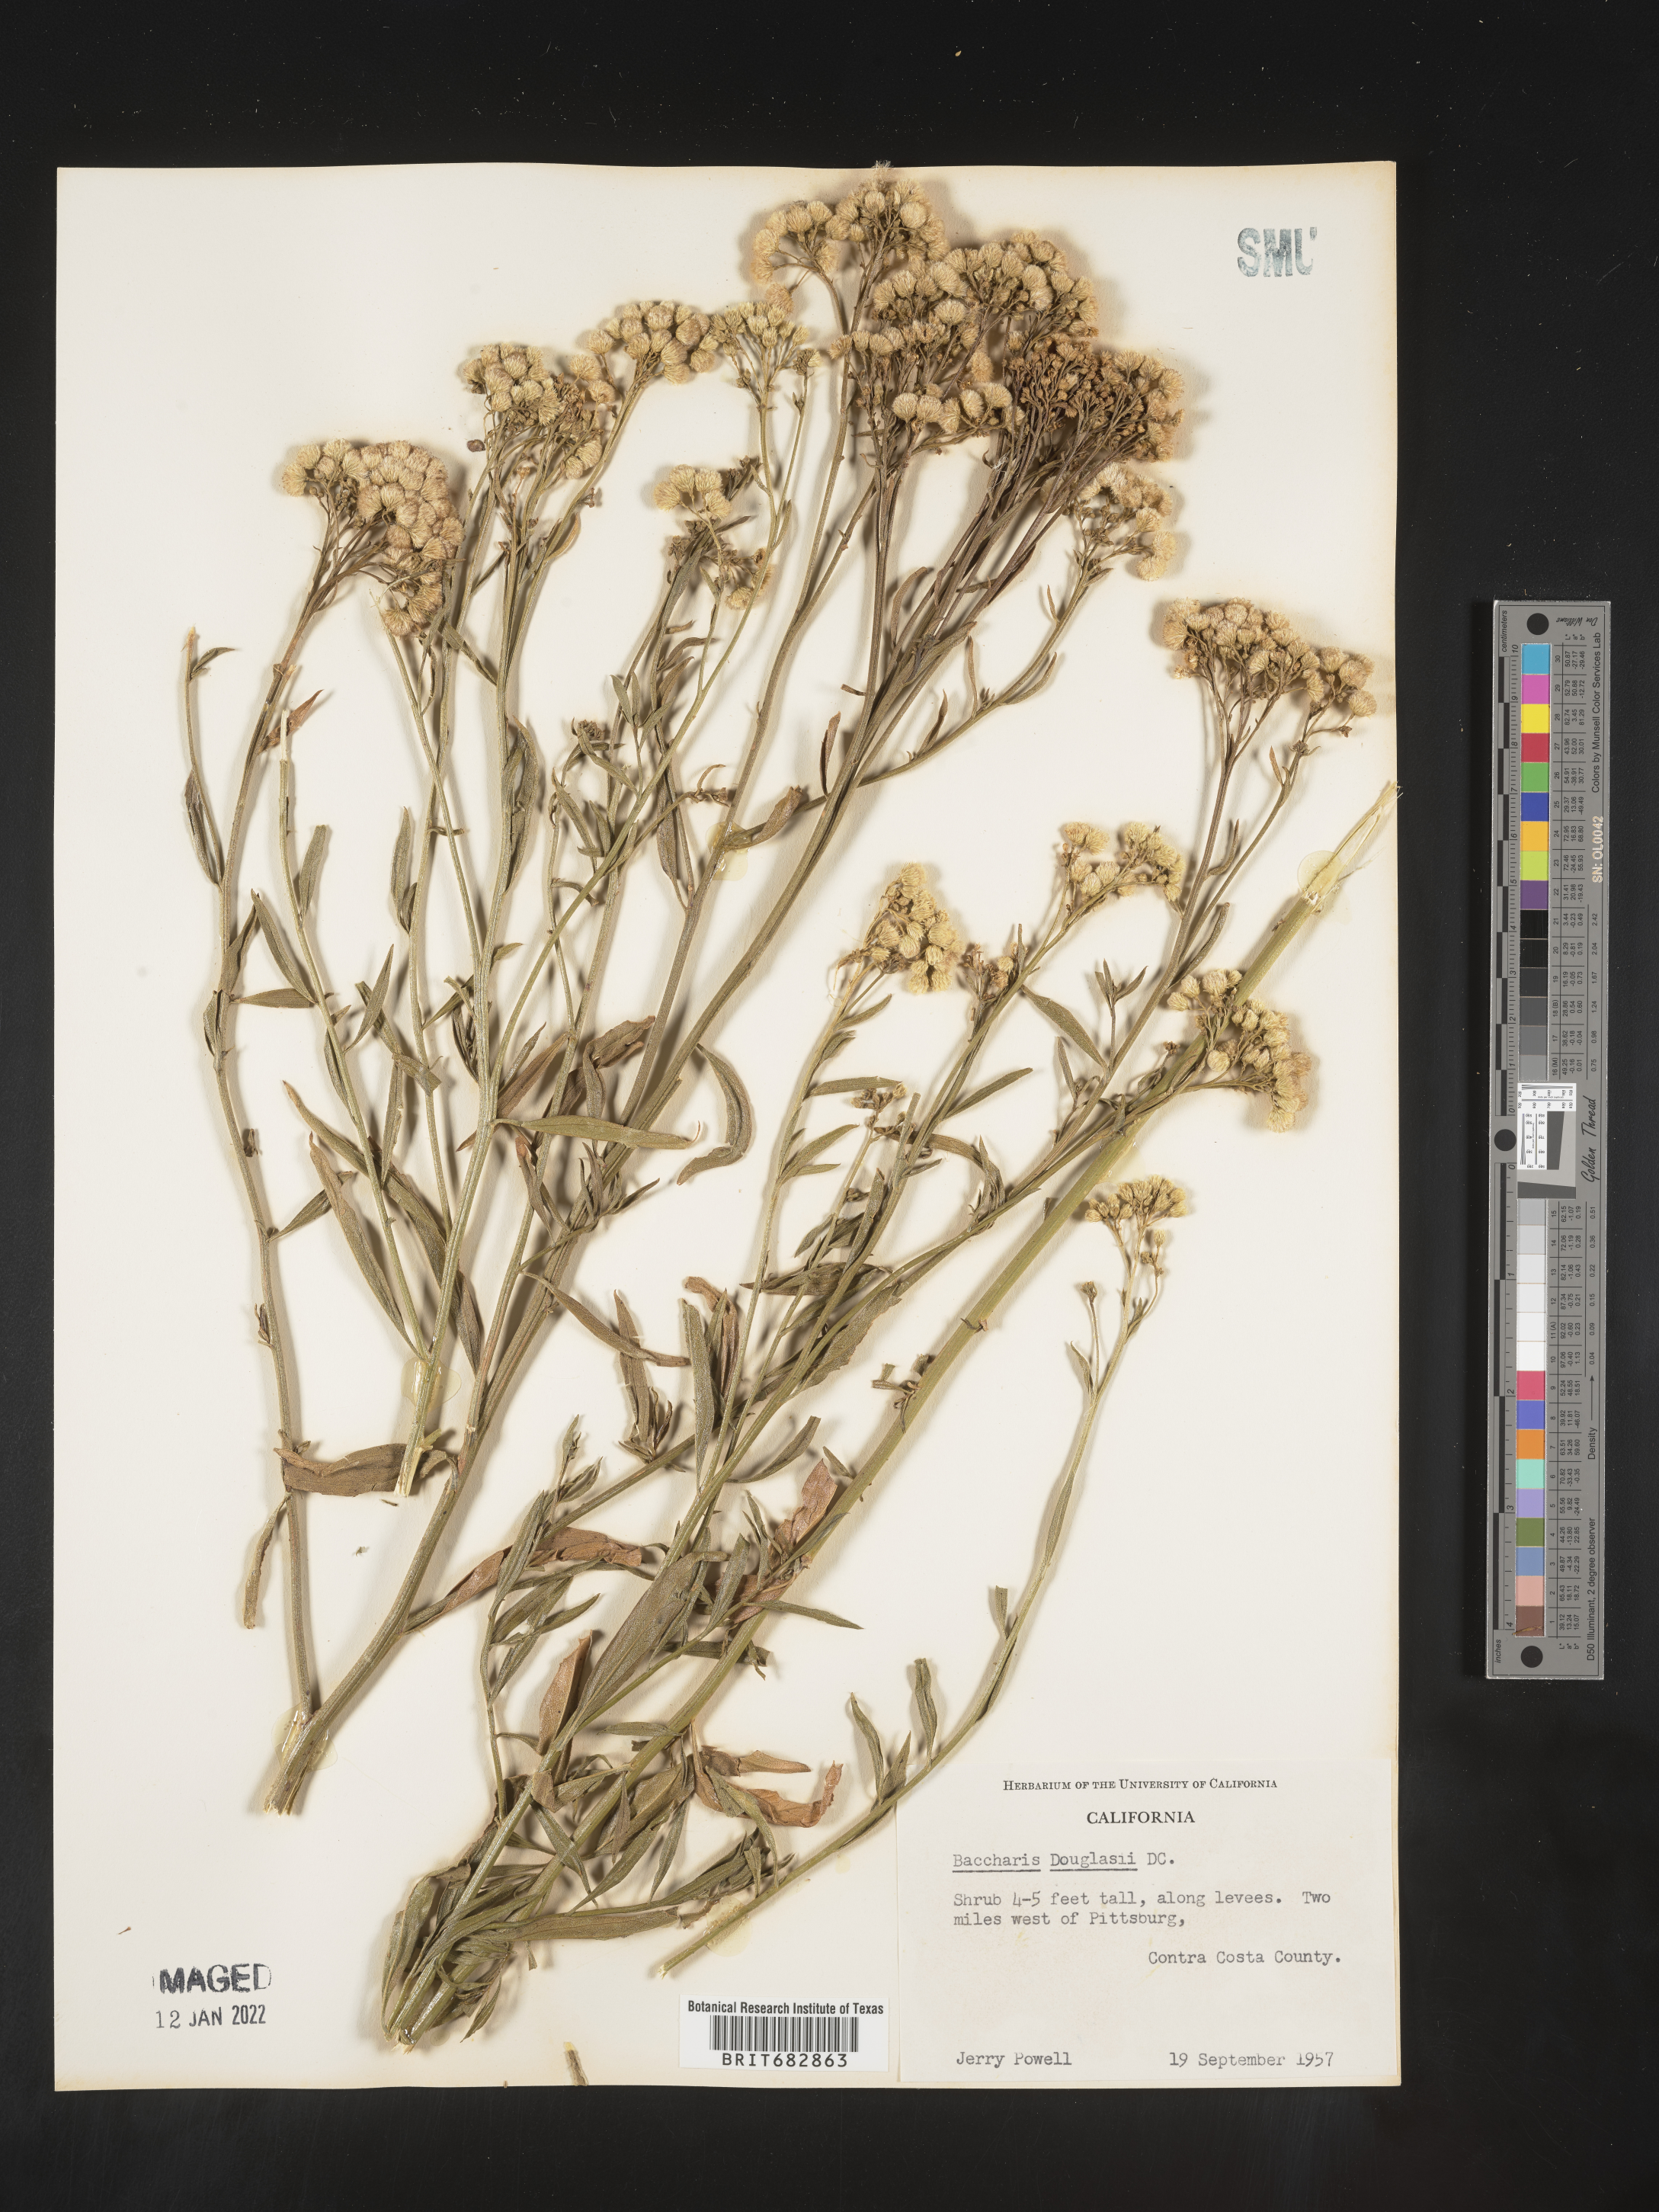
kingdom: Plantae
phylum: Tracheophyta
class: Magnoliopsida
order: Asterales
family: Asteraceae
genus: Baccharis
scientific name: Baccharis douglasii
